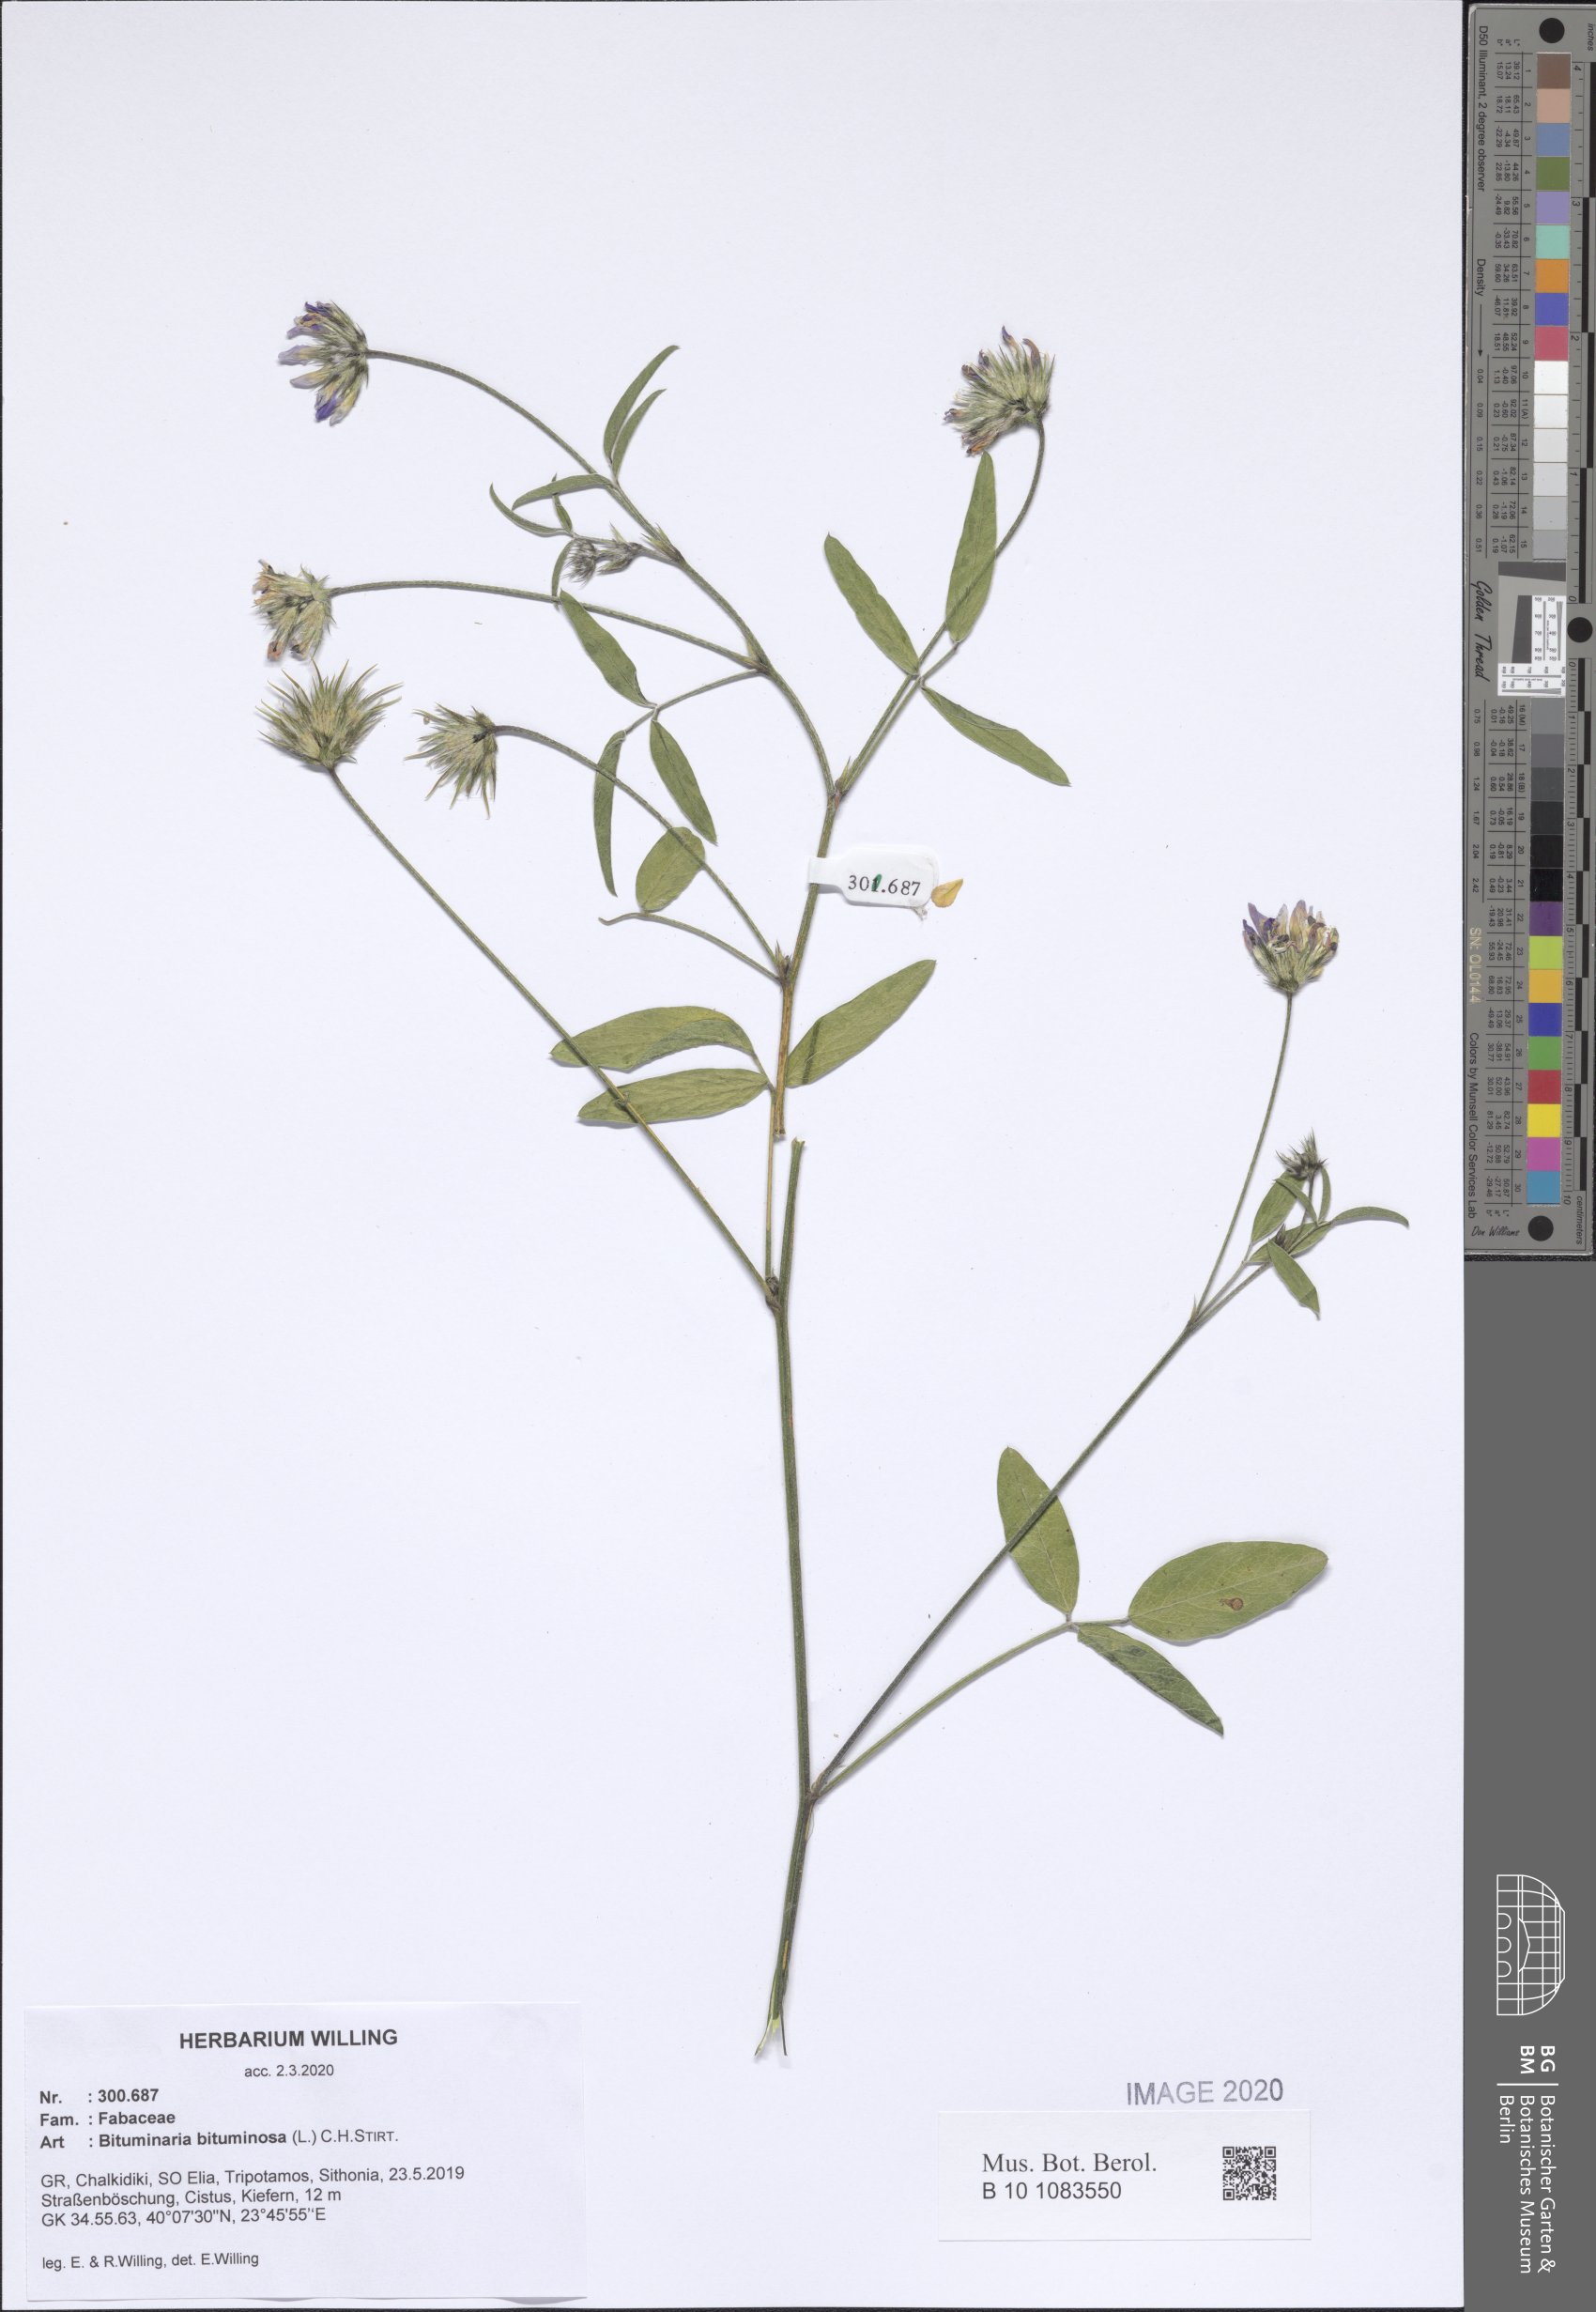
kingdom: Plantae
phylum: Tracheophyta
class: Magnoliopsida
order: Fabales
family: Fabaceae
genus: Bituminaria
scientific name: Bituminaria bituminosa
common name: Arabian pea
